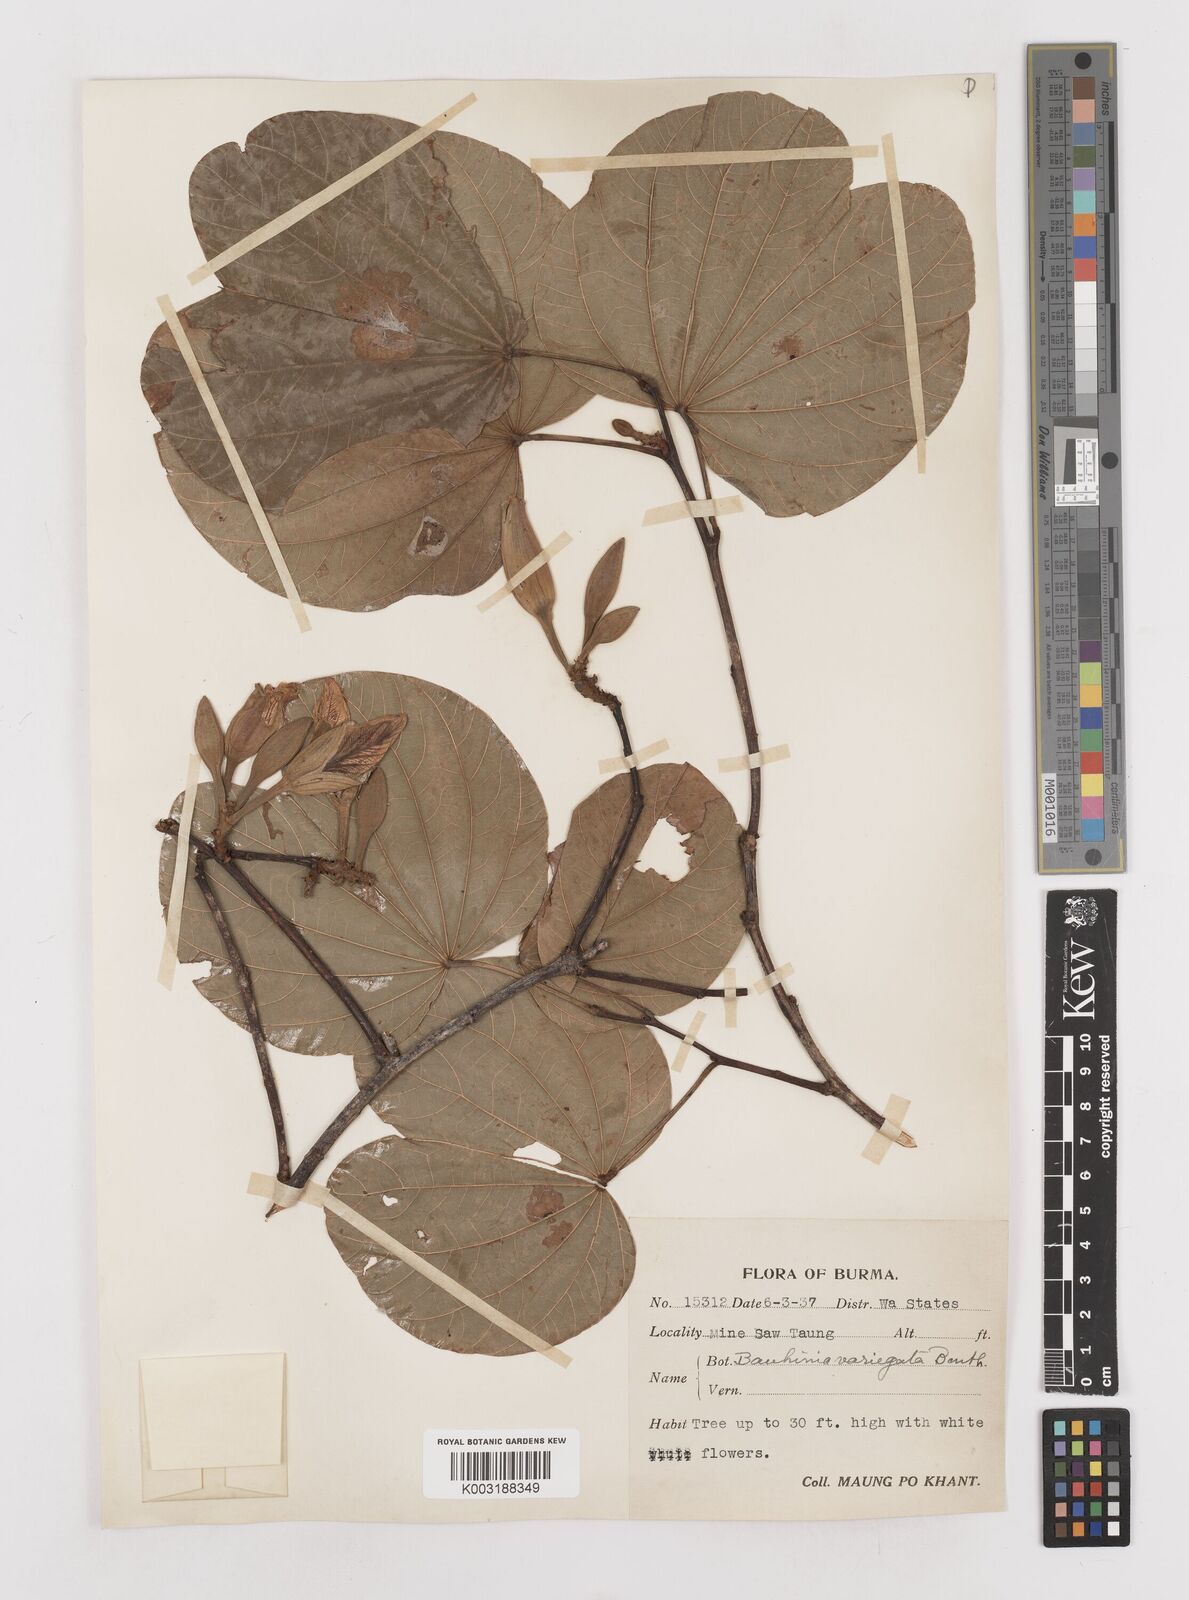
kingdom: Plantae
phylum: Tracheophyta
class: Magnoliopsida
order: Fabales
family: Fabaceae
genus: Bauhinia
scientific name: Bauhinia variegata
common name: Mountain ebony
